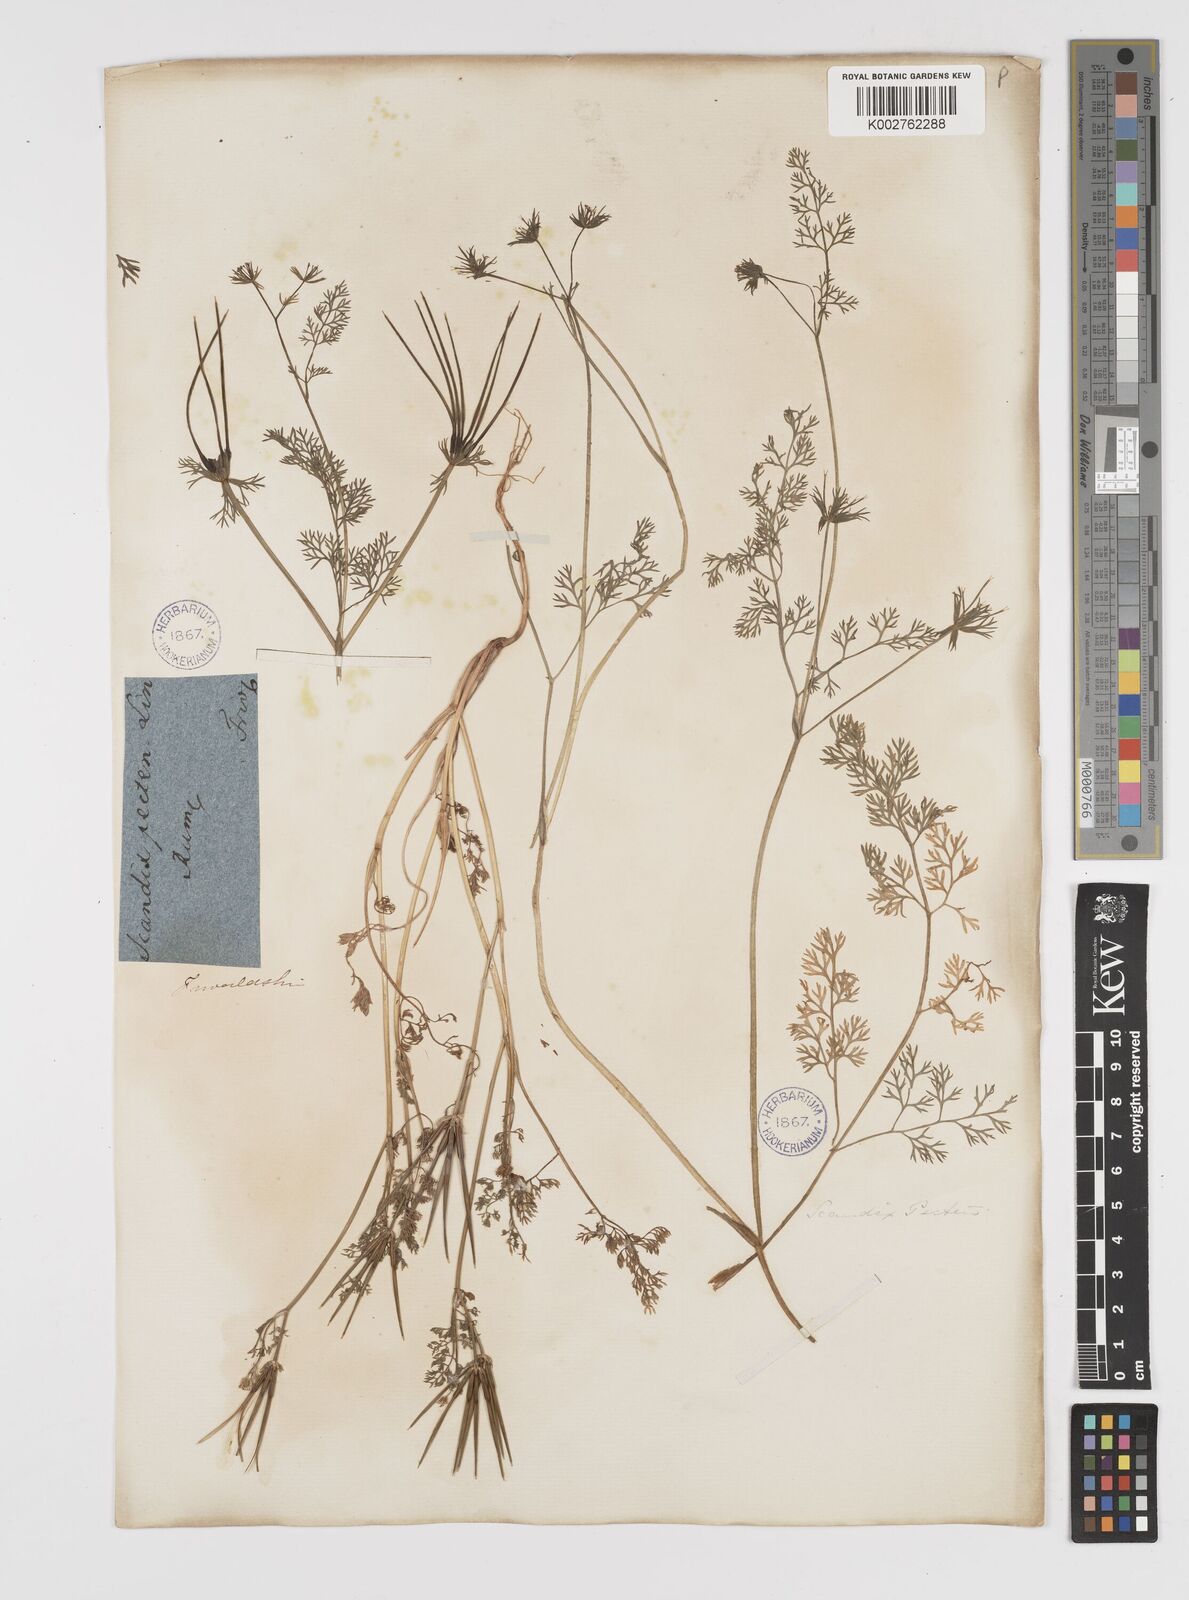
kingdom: Plantae
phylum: Tracheophyta
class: Magnoliopsida
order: Apiales
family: Apiaceae
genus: Scandix
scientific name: Scandix pecten-veneris
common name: Shepherd's-needle
